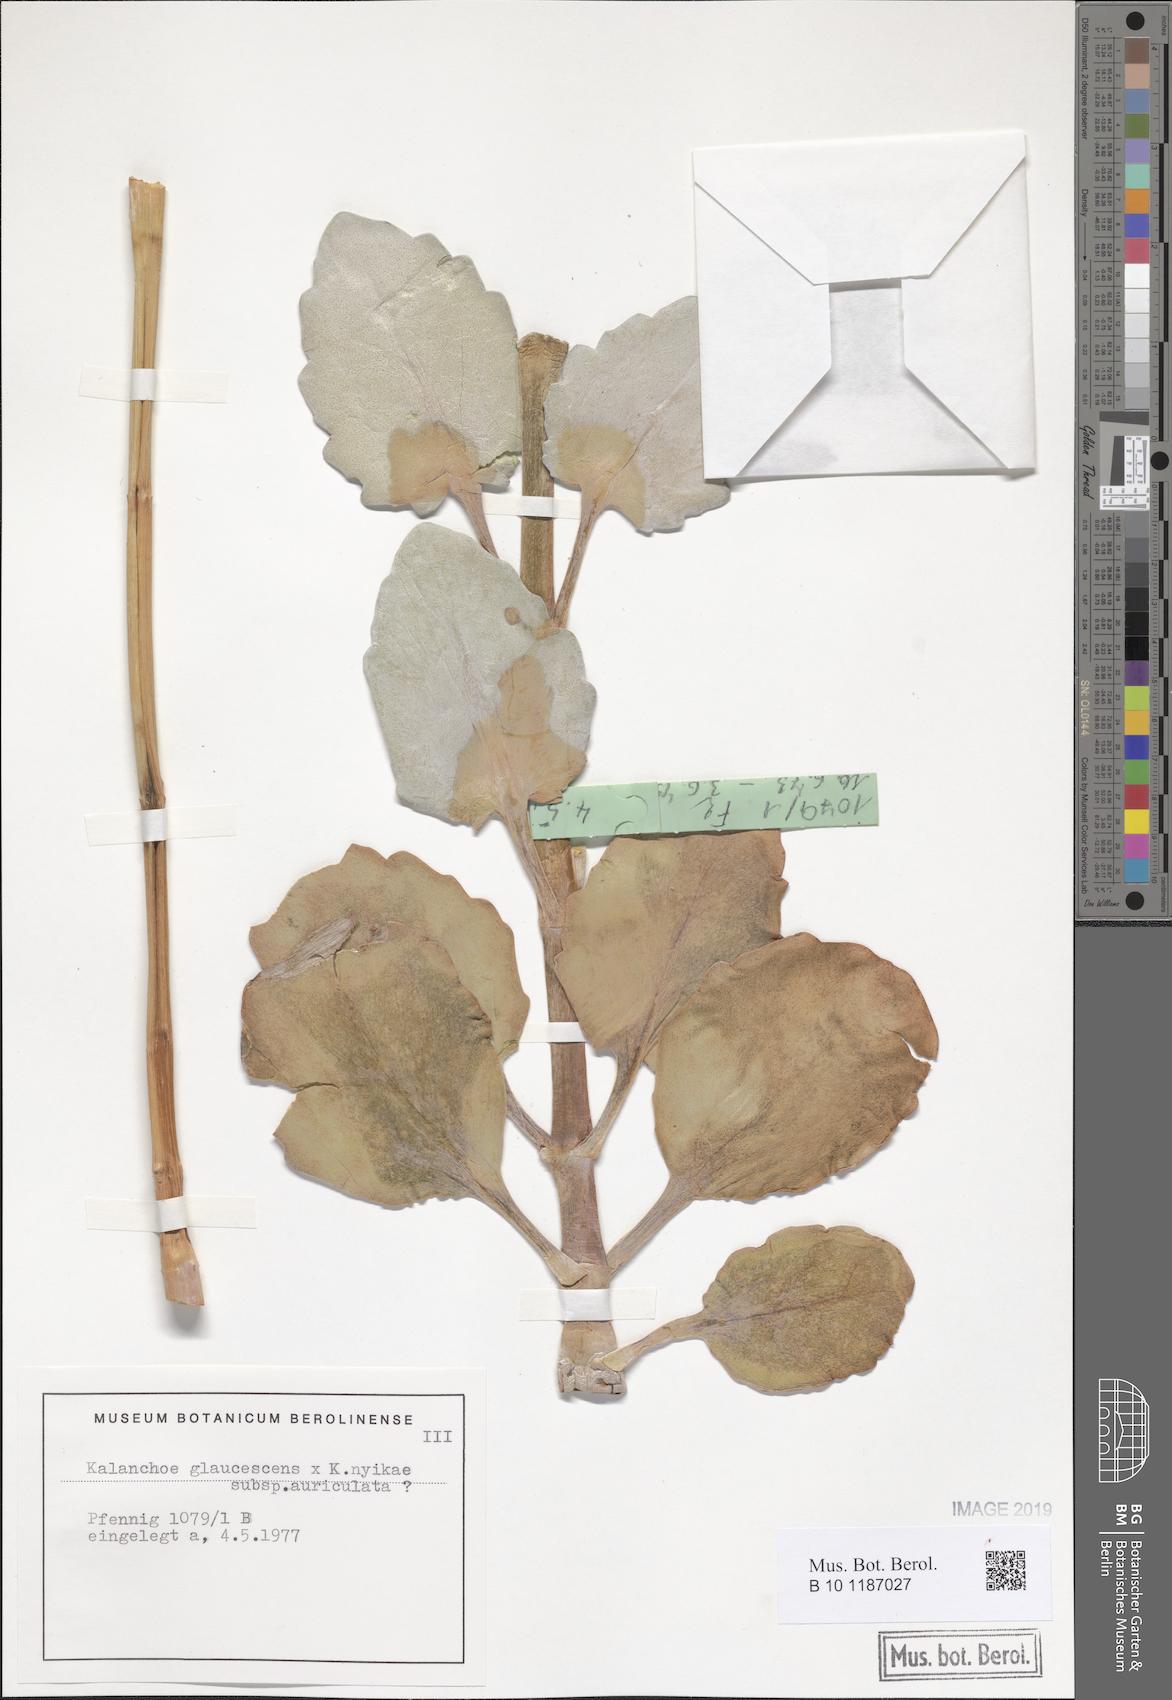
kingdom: Plantae
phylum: Tracheophyta
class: Magnoliopsida
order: Saxifragales
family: Crassulaceae
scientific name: Crassulaceae
